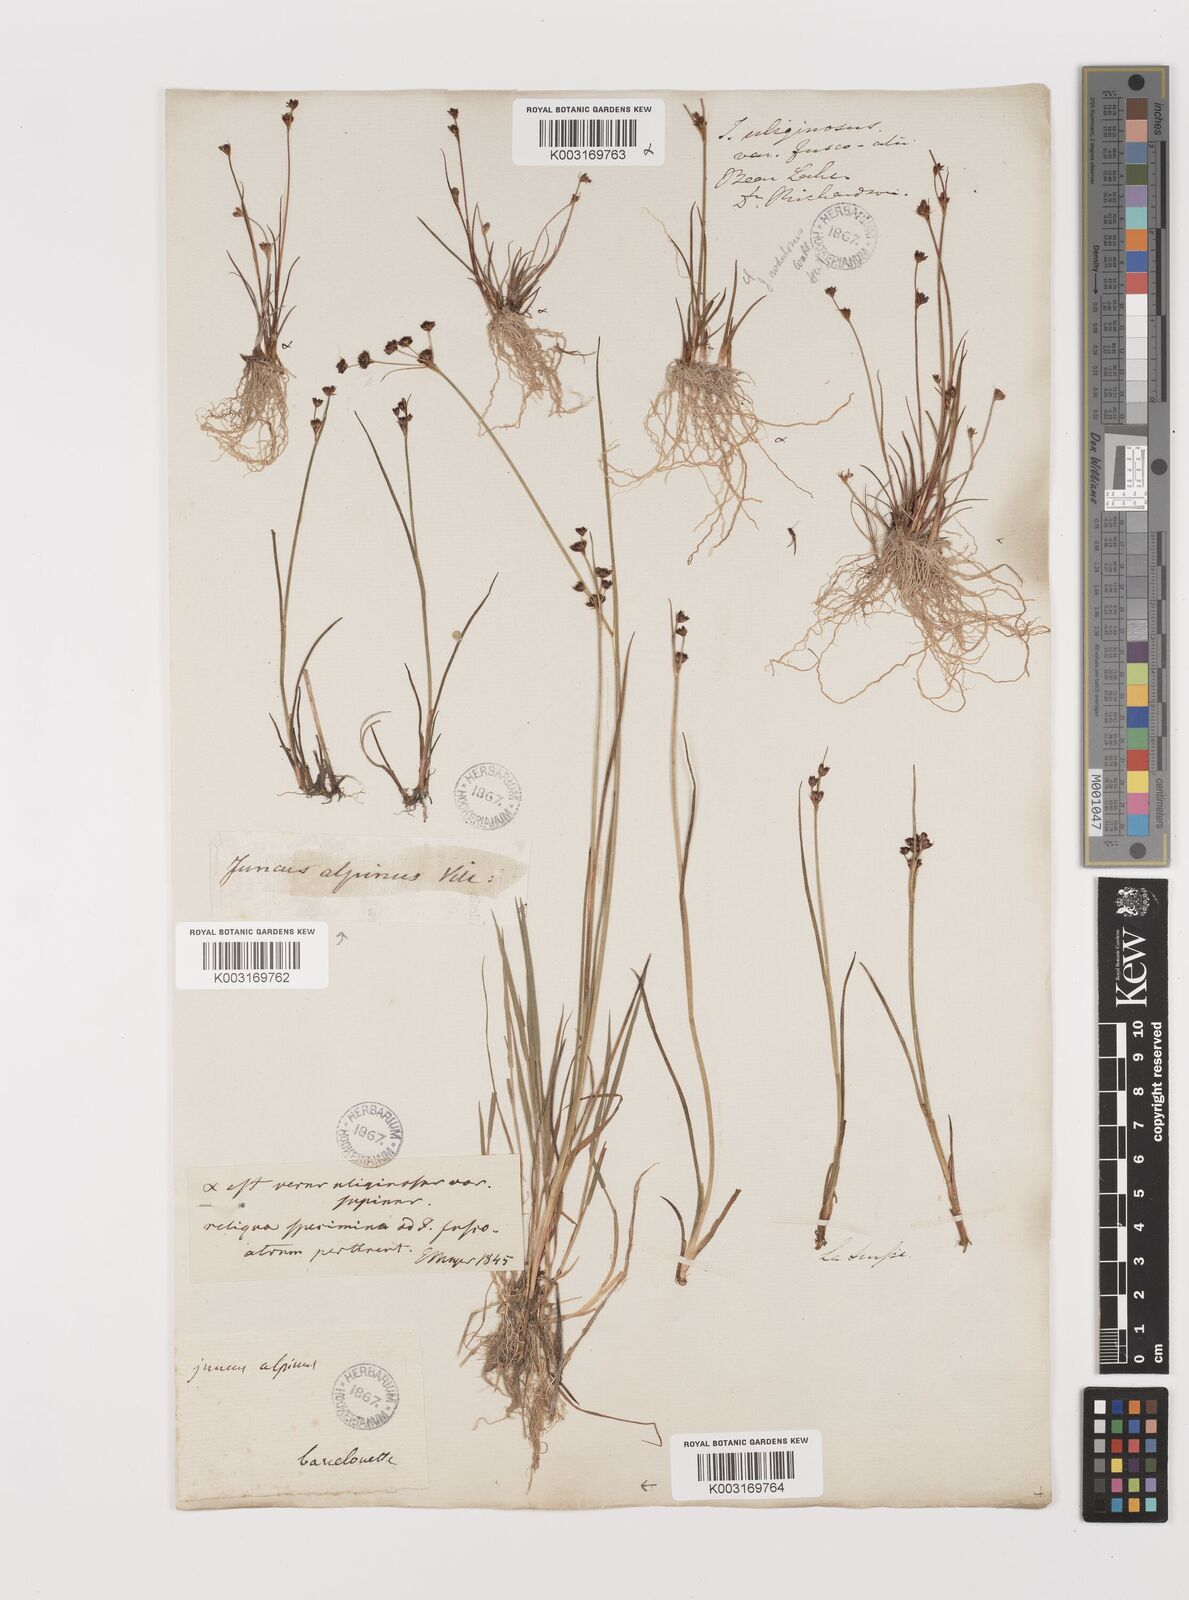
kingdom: Plantae
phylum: Tracheophyta
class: Liliopsida
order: Poales
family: Juncaceae
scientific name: Juncaceae
